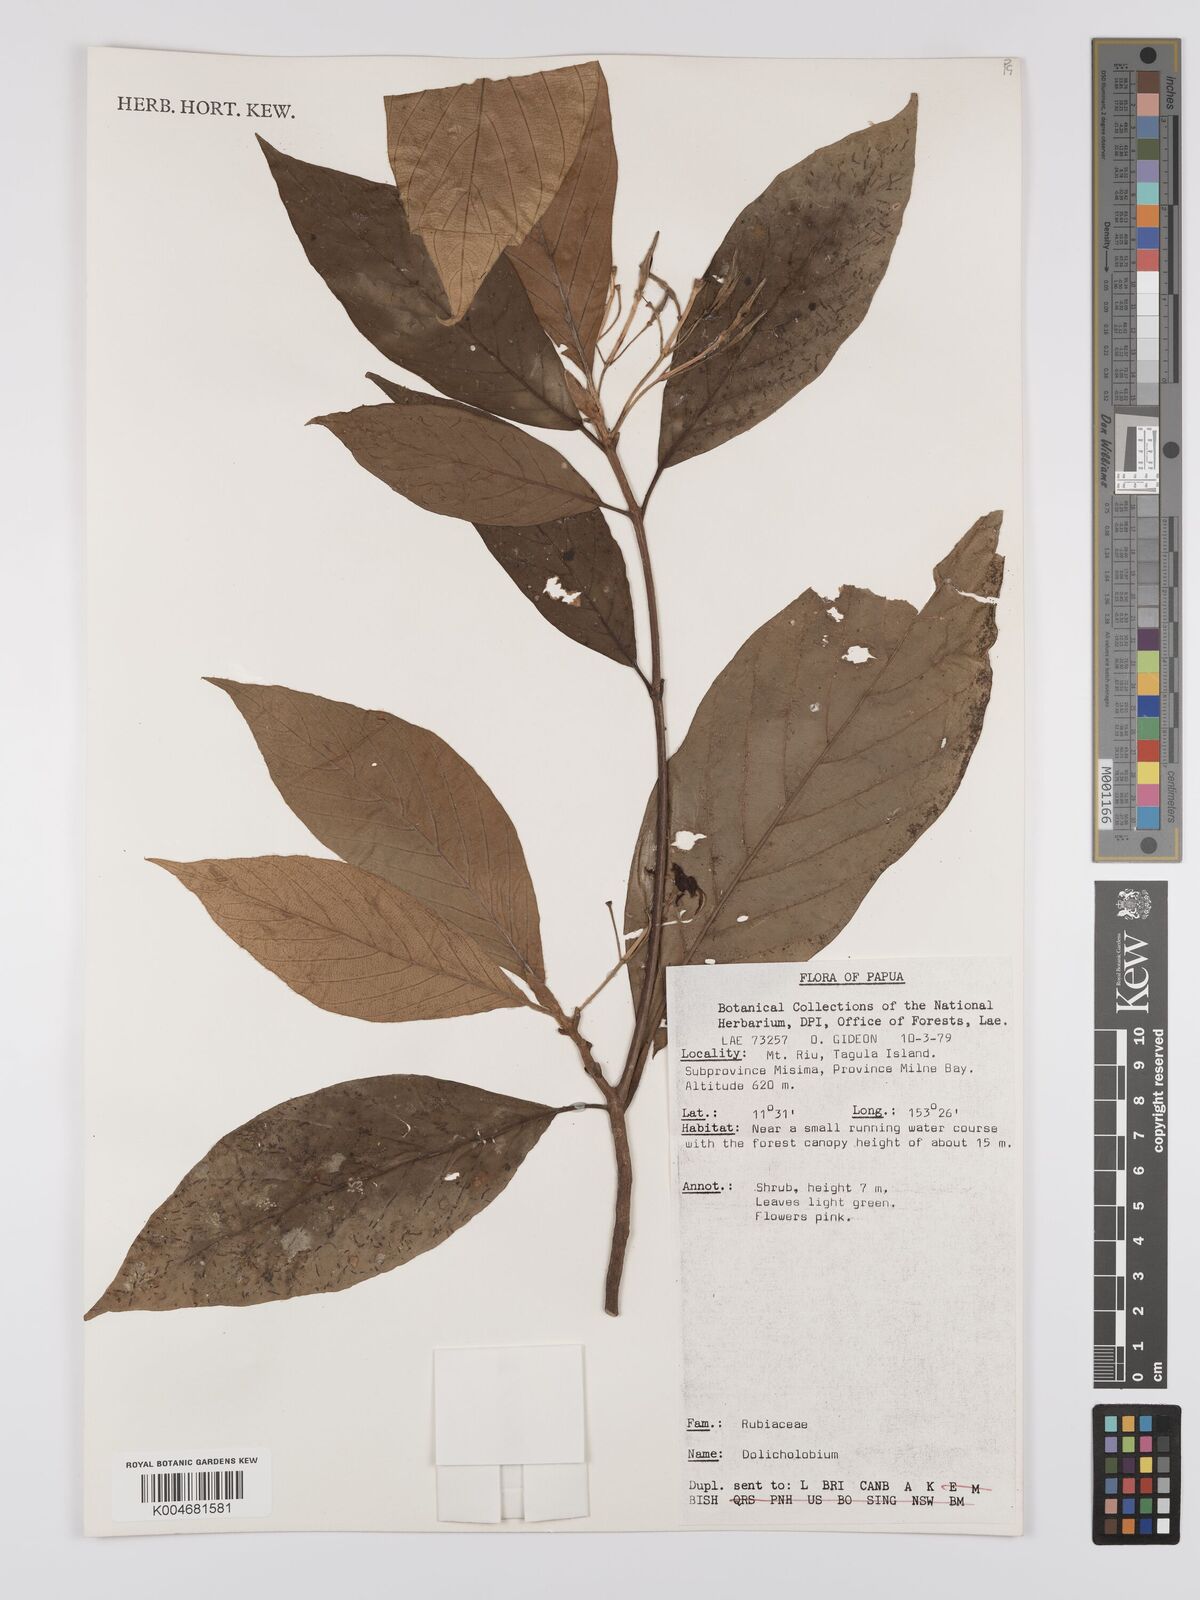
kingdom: Plantae
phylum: Tracheophyta
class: Magnoliopsida
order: Gentianales
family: Rubiaceae
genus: Dolicholobium
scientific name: Dolicholobium
